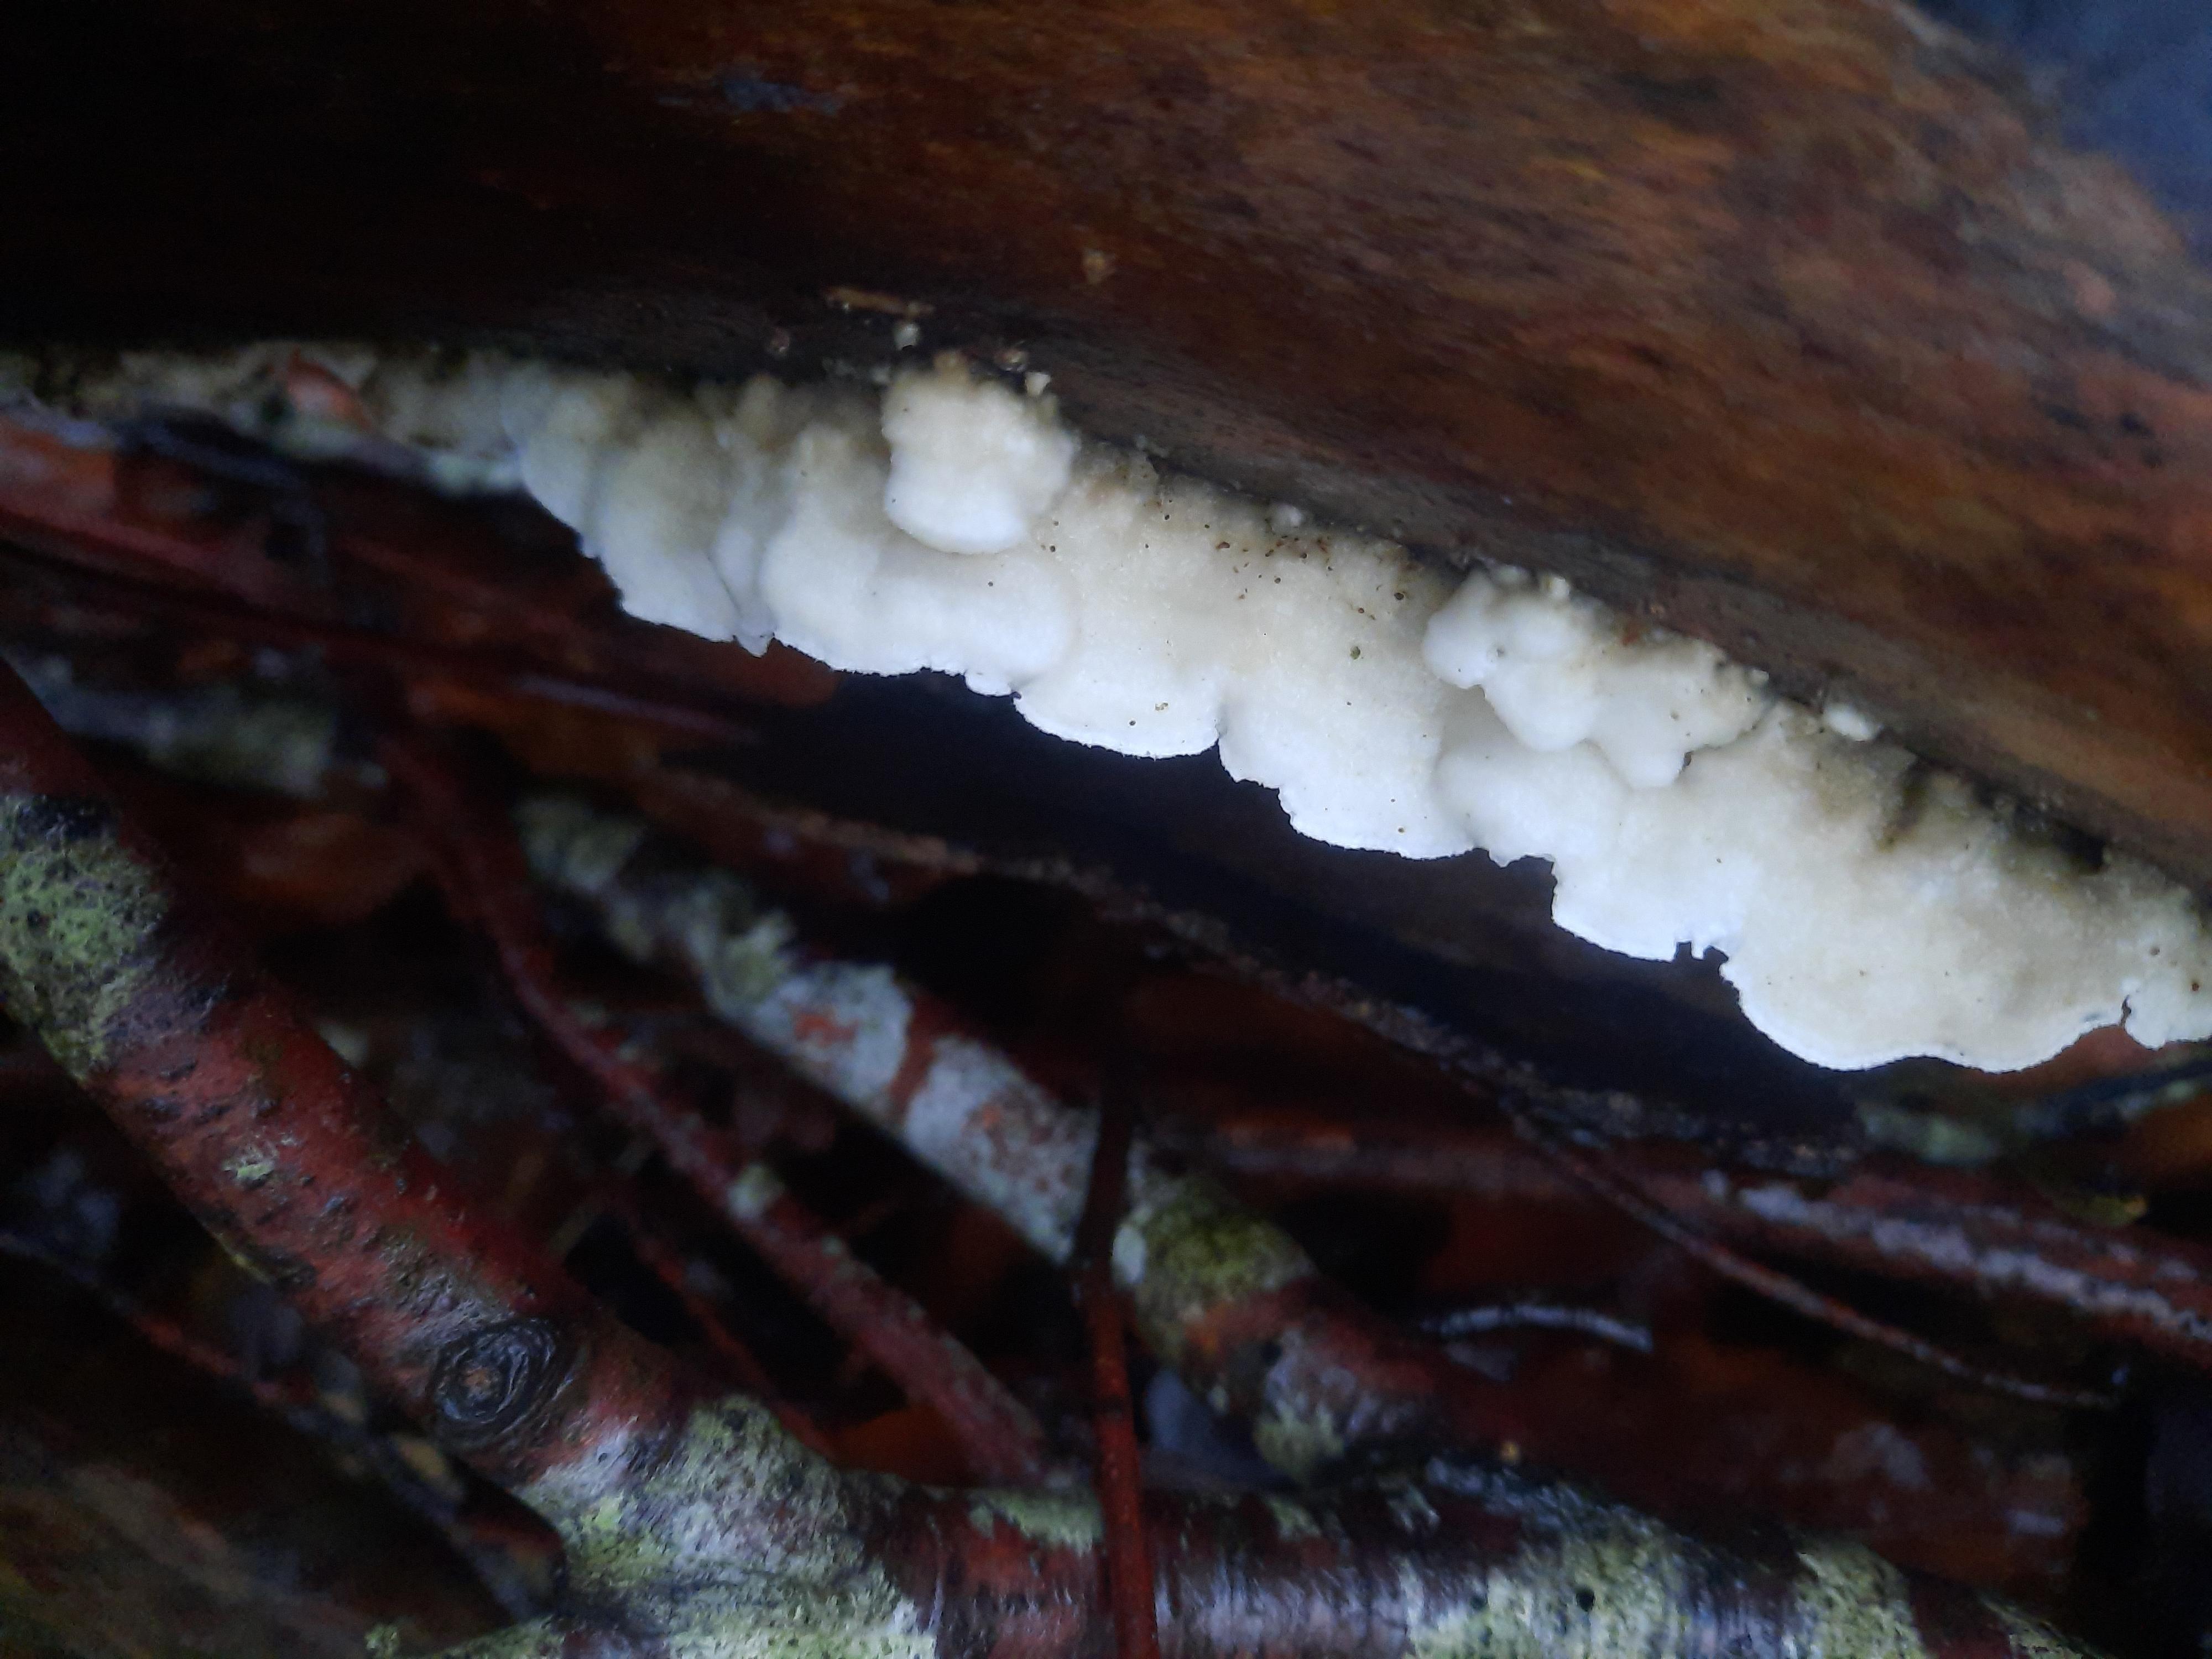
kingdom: Fungi
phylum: Basidiomycota
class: Agaricomycetes
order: Polyporales
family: Irpicaceae
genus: Byssomerulius
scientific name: Byssomerulius corium
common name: læder-åresvamp
